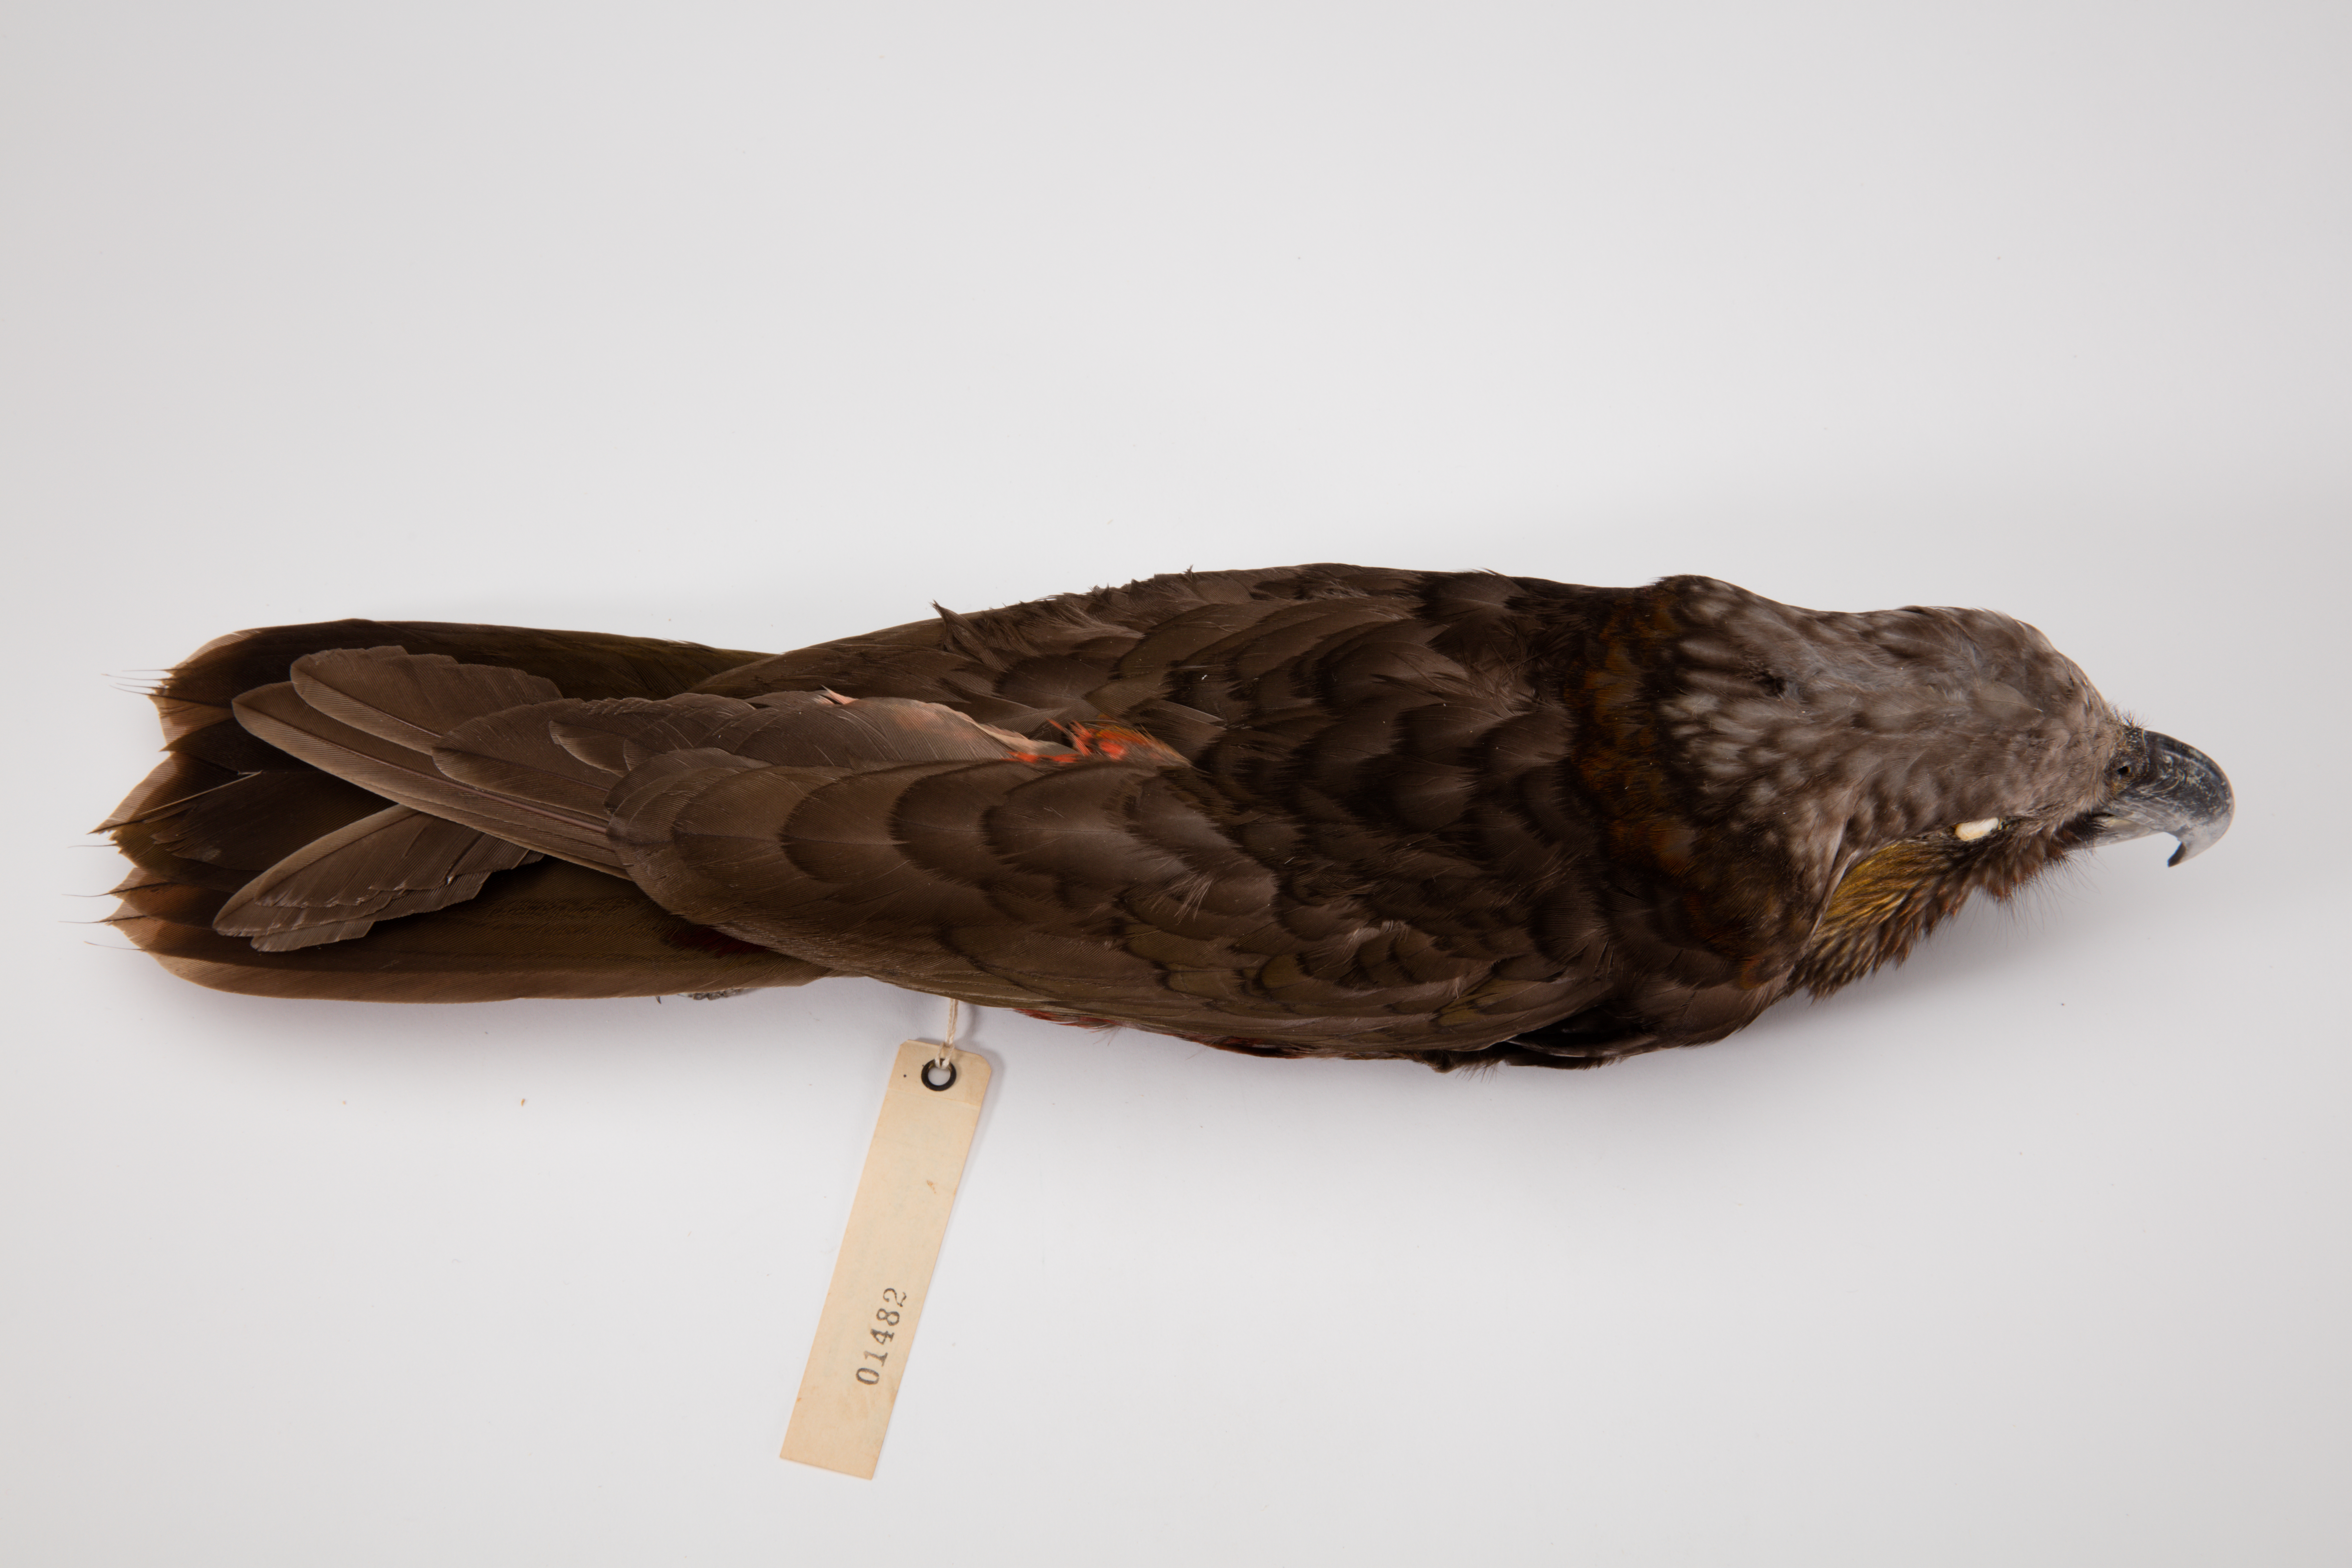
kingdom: Animalia
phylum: Chordata
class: Aves
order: Psittaciformes
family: Psittacidae
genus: Nestor
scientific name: Nestor meridionalis
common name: New zealand kaka
